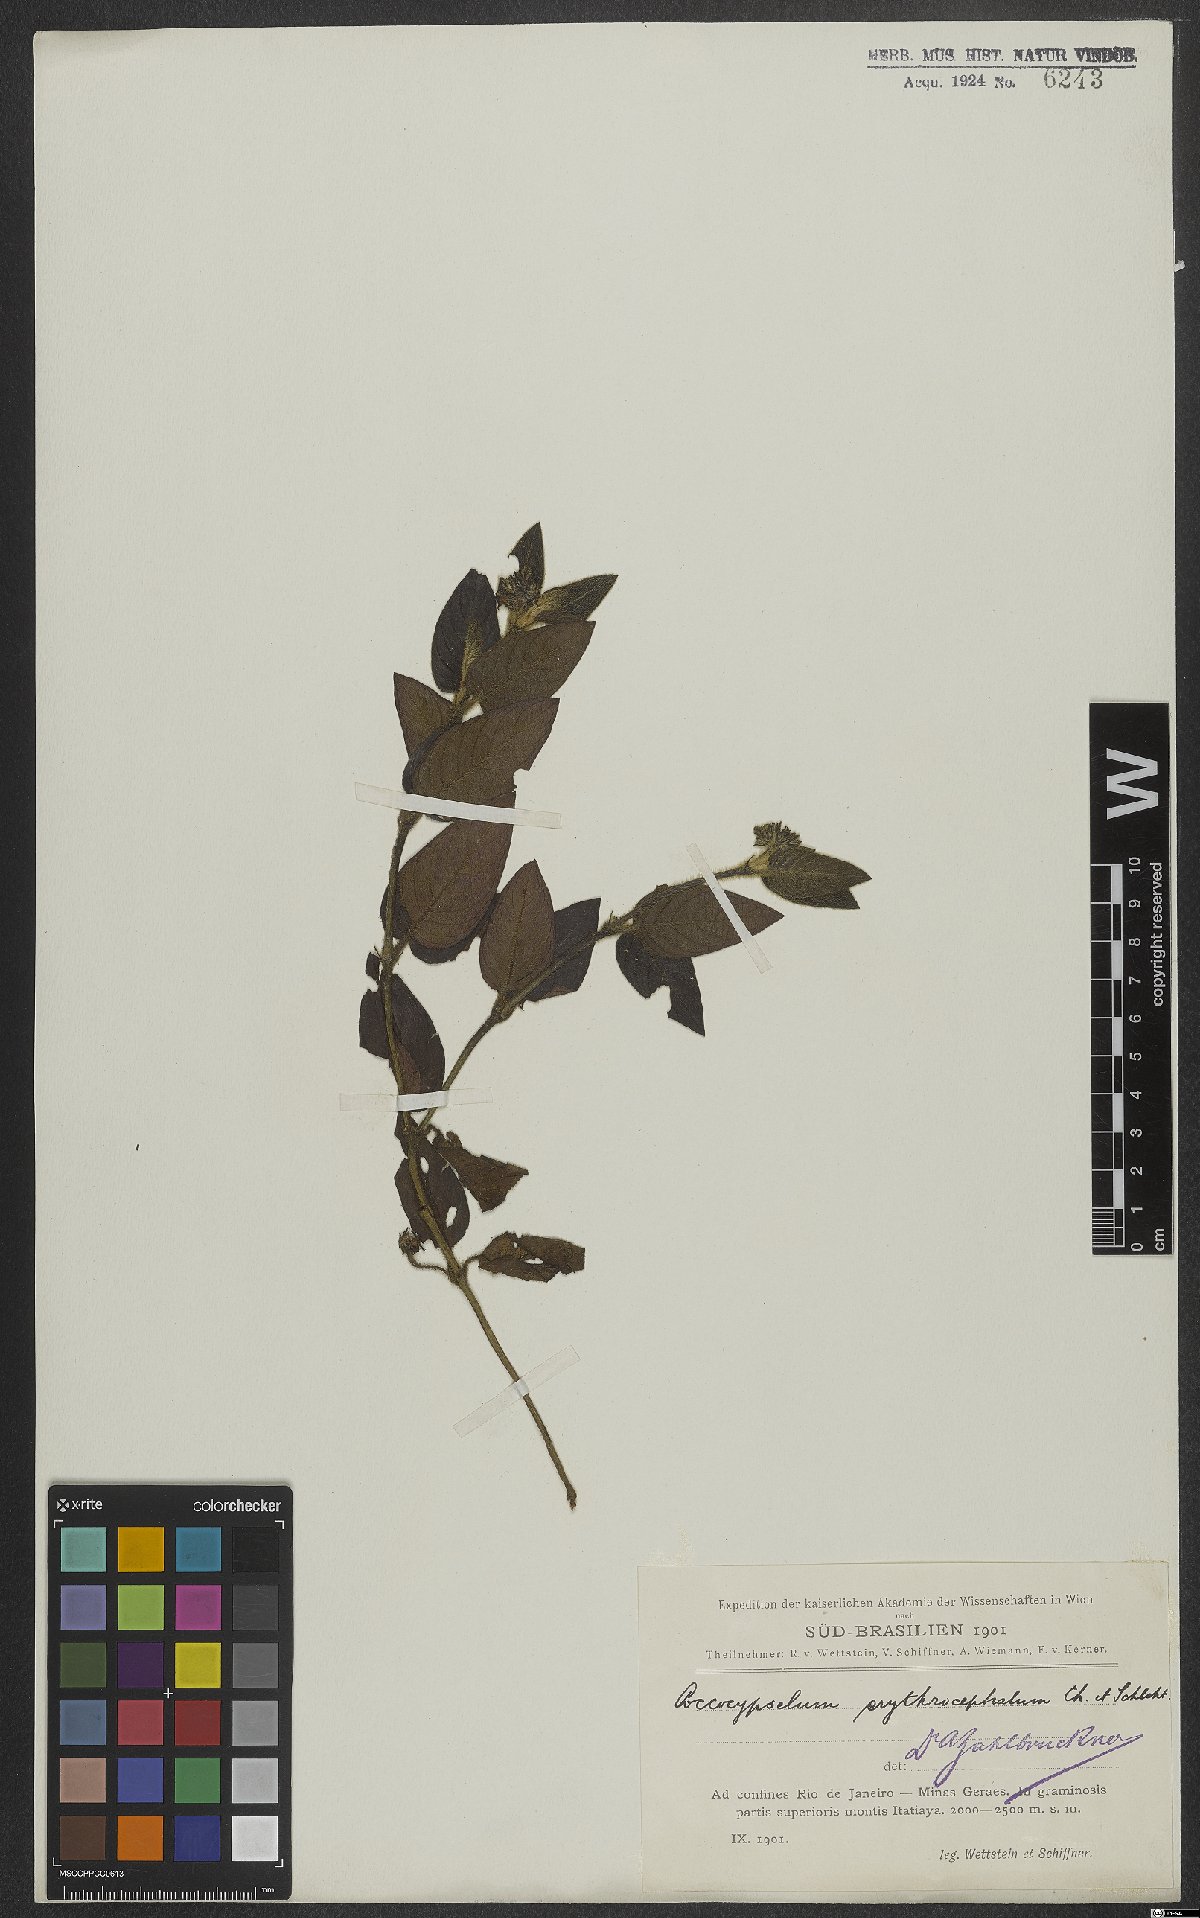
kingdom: Plantae
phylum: Tracheophyta
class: Magnoliopsida
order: Gentianales
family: Rubiaceae
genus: Coccocypselum
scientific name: Coccocypselum erythrocephalum
